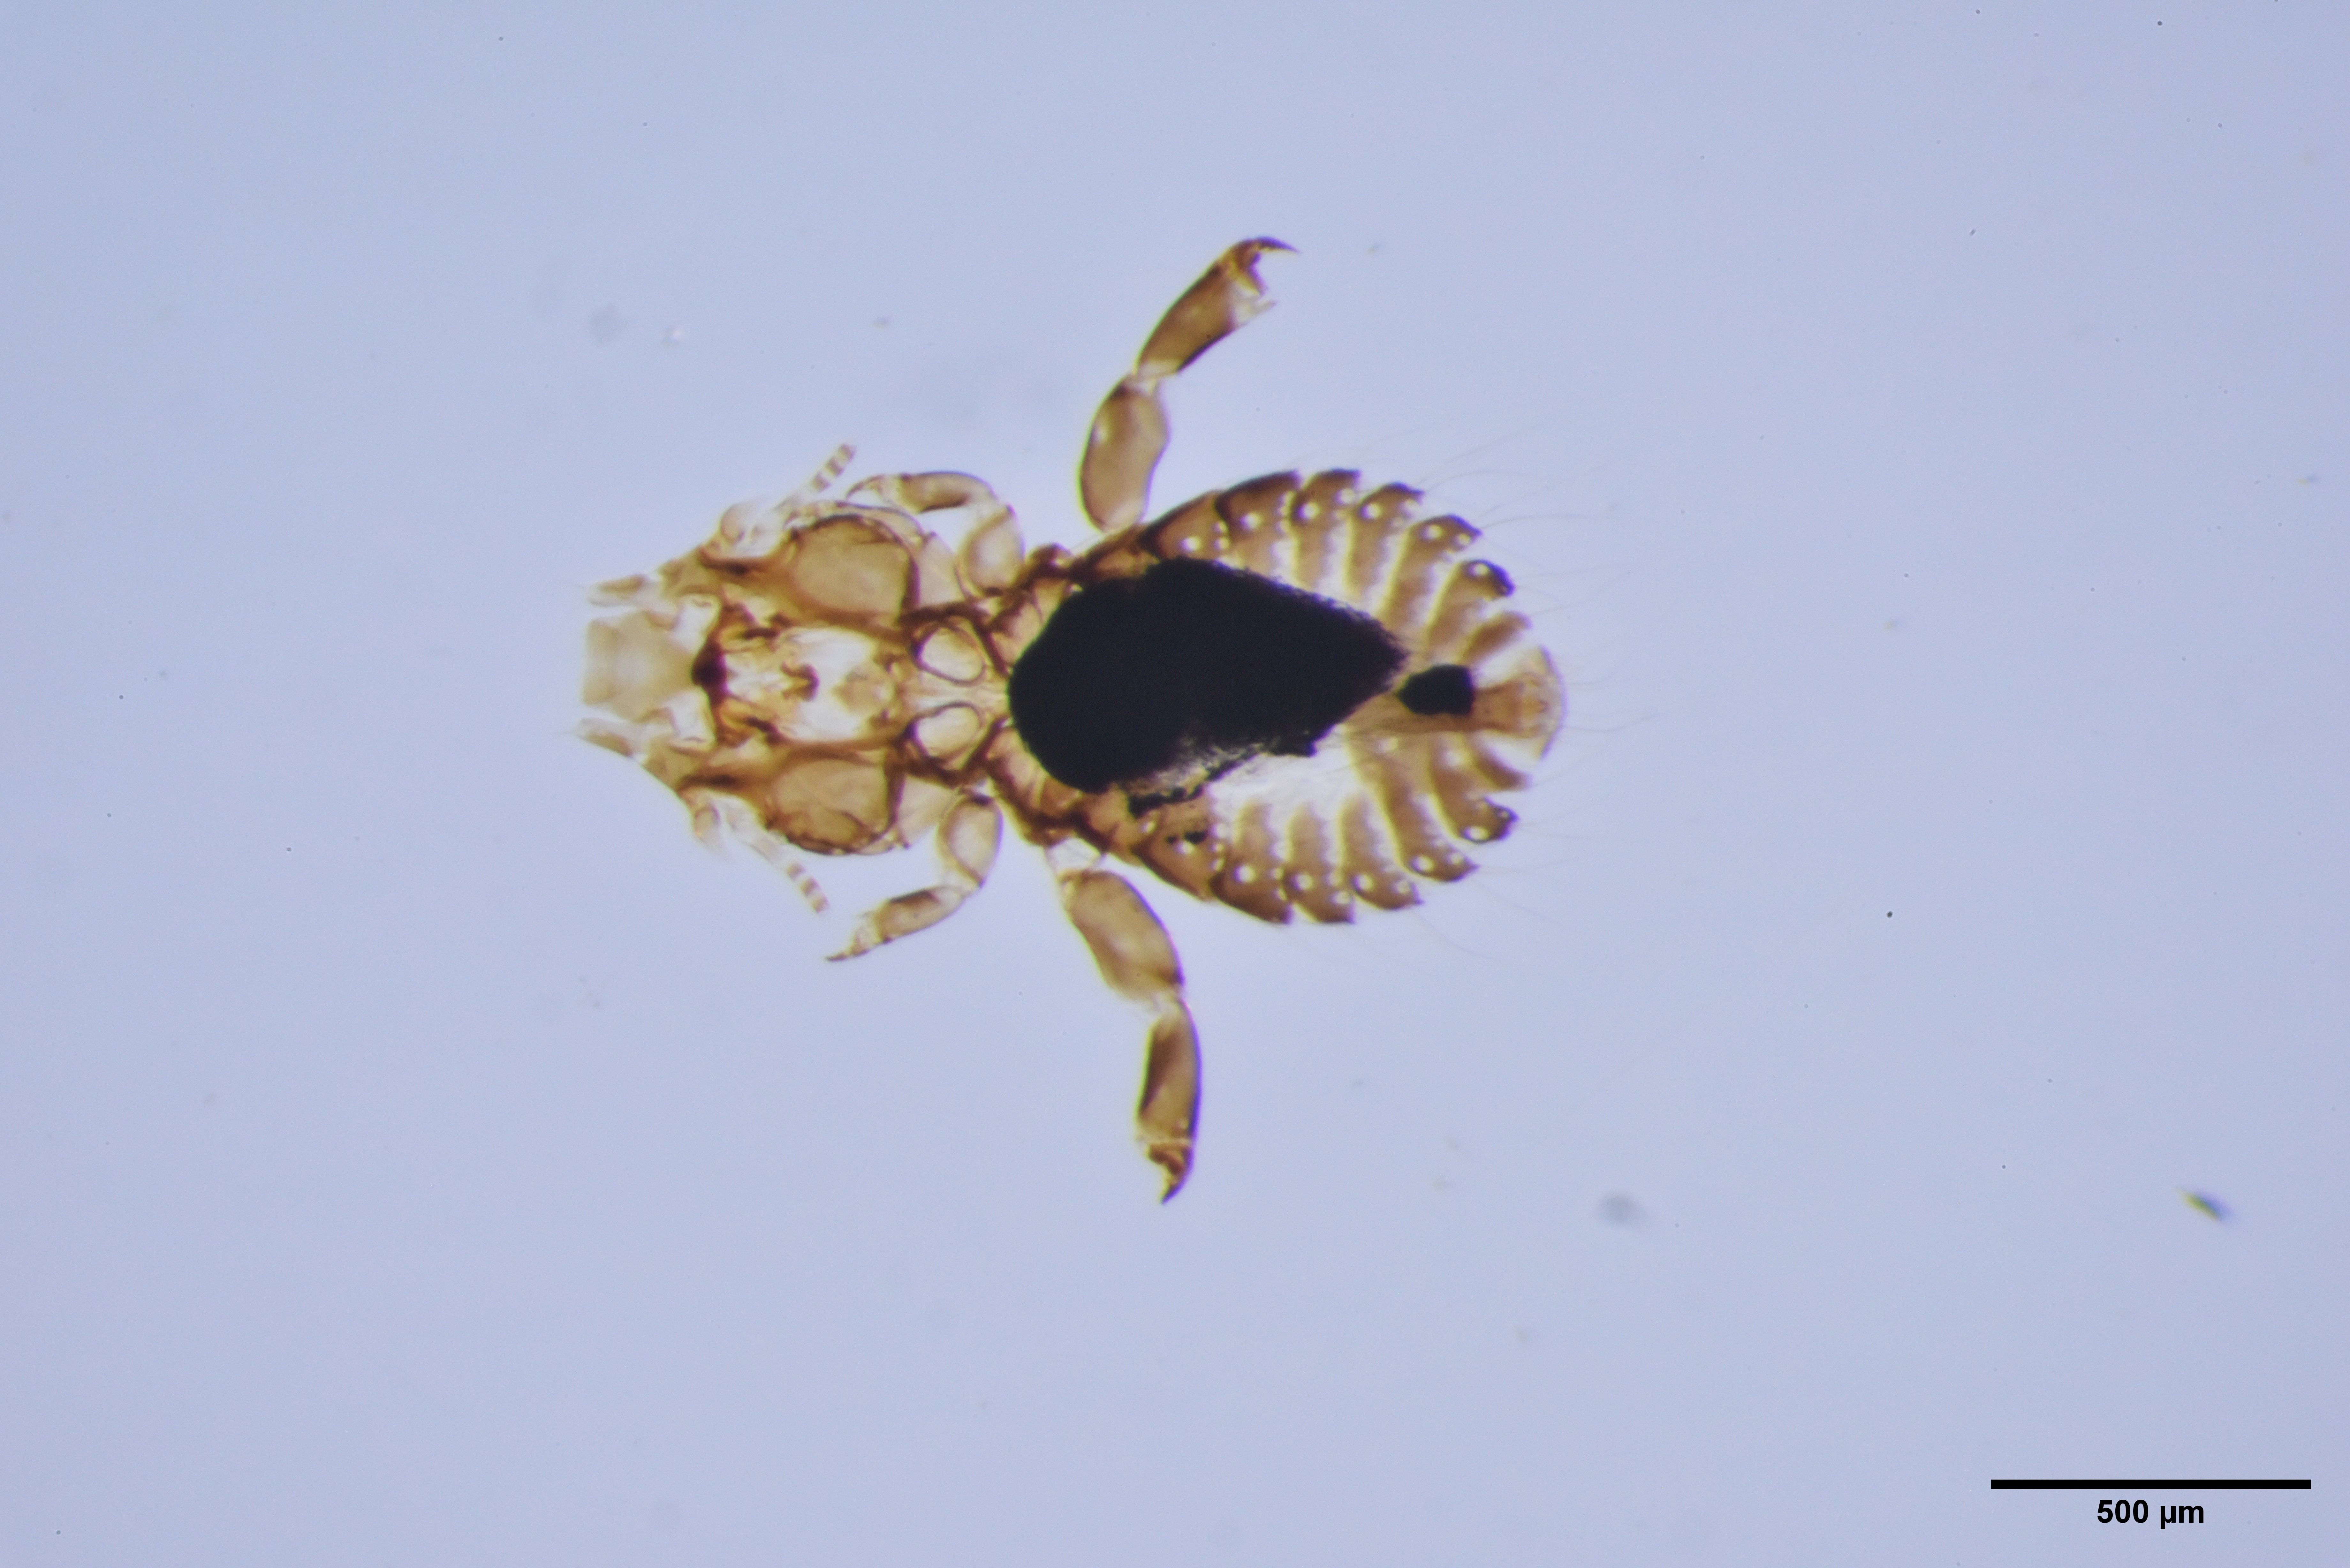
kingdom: Animalia
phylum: Arthropoda
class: Insecta
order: Psocodea
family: Philopteridae
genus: Philopterus
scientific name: Philopterus turdi
